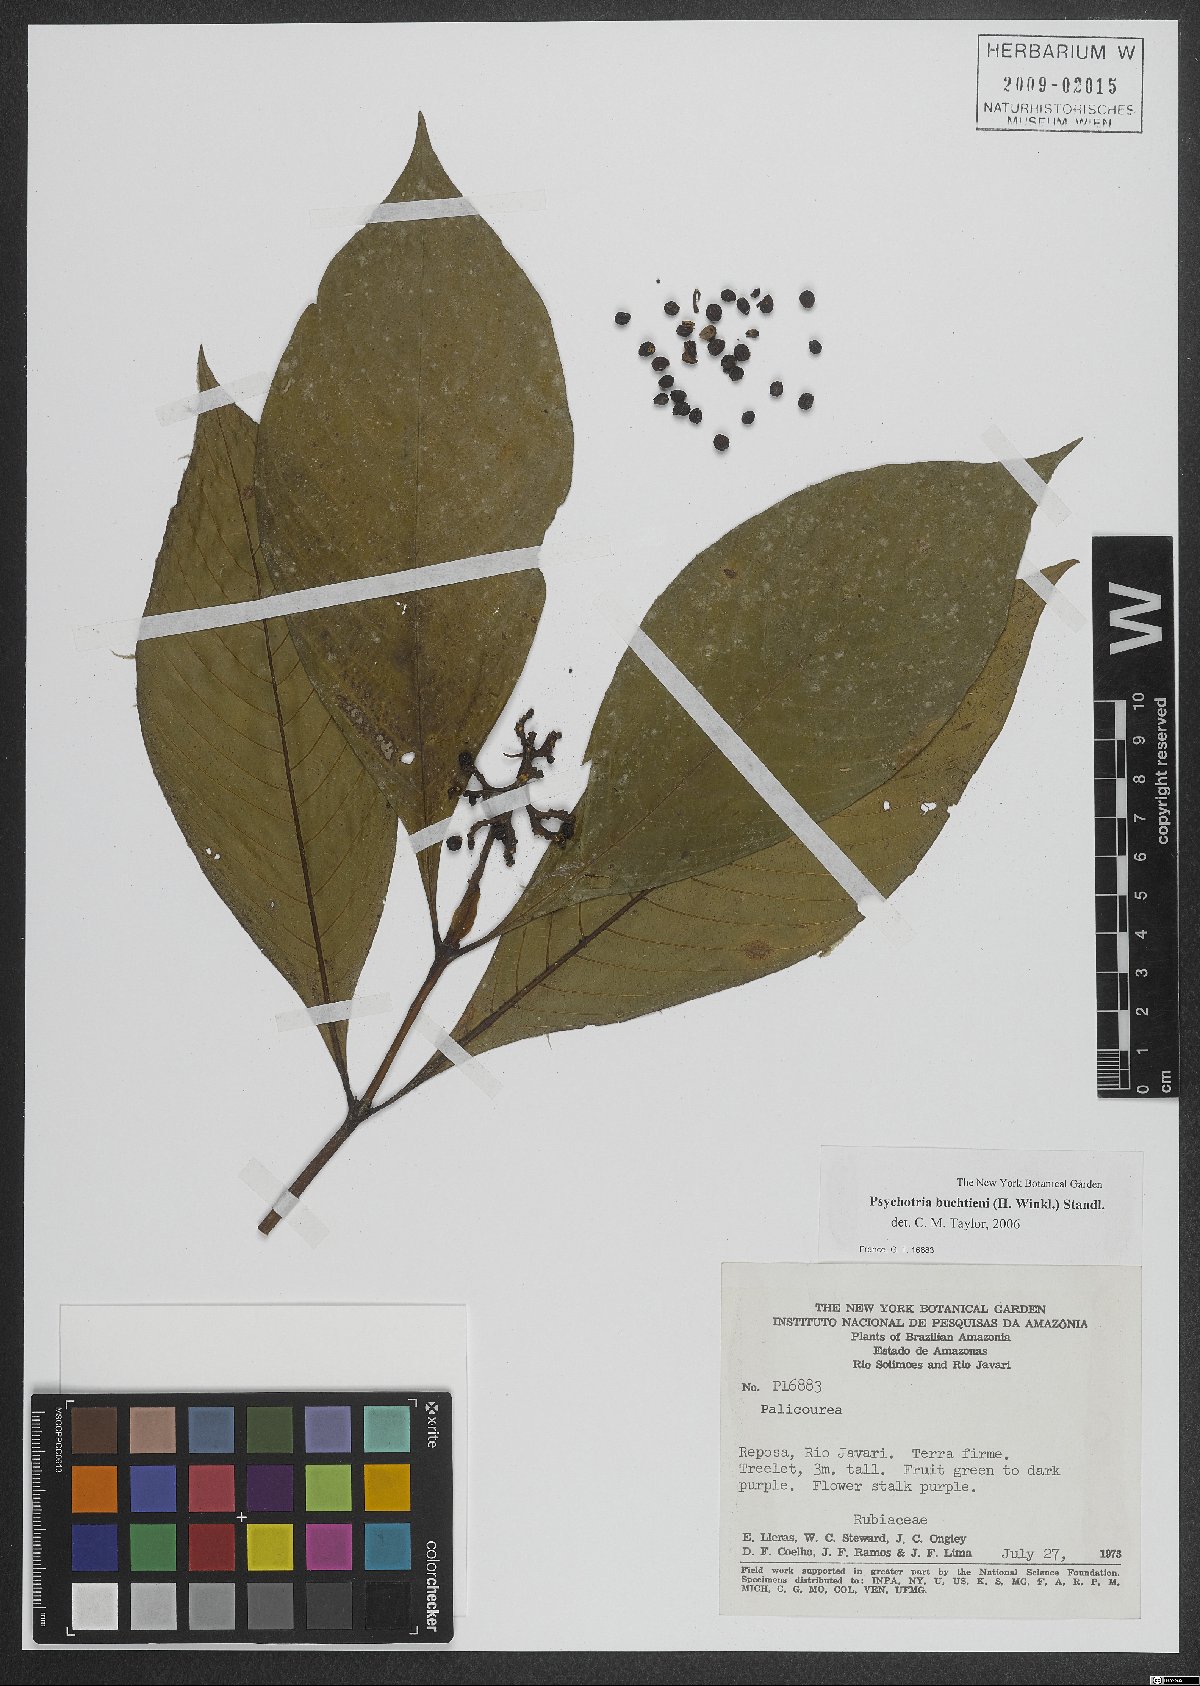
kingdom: Plantae
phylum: Tracheophyta
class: Magnoliopsida
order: Gentianales
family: Rubiaceae
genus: Palicourea
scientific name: Palicourea winkleri
